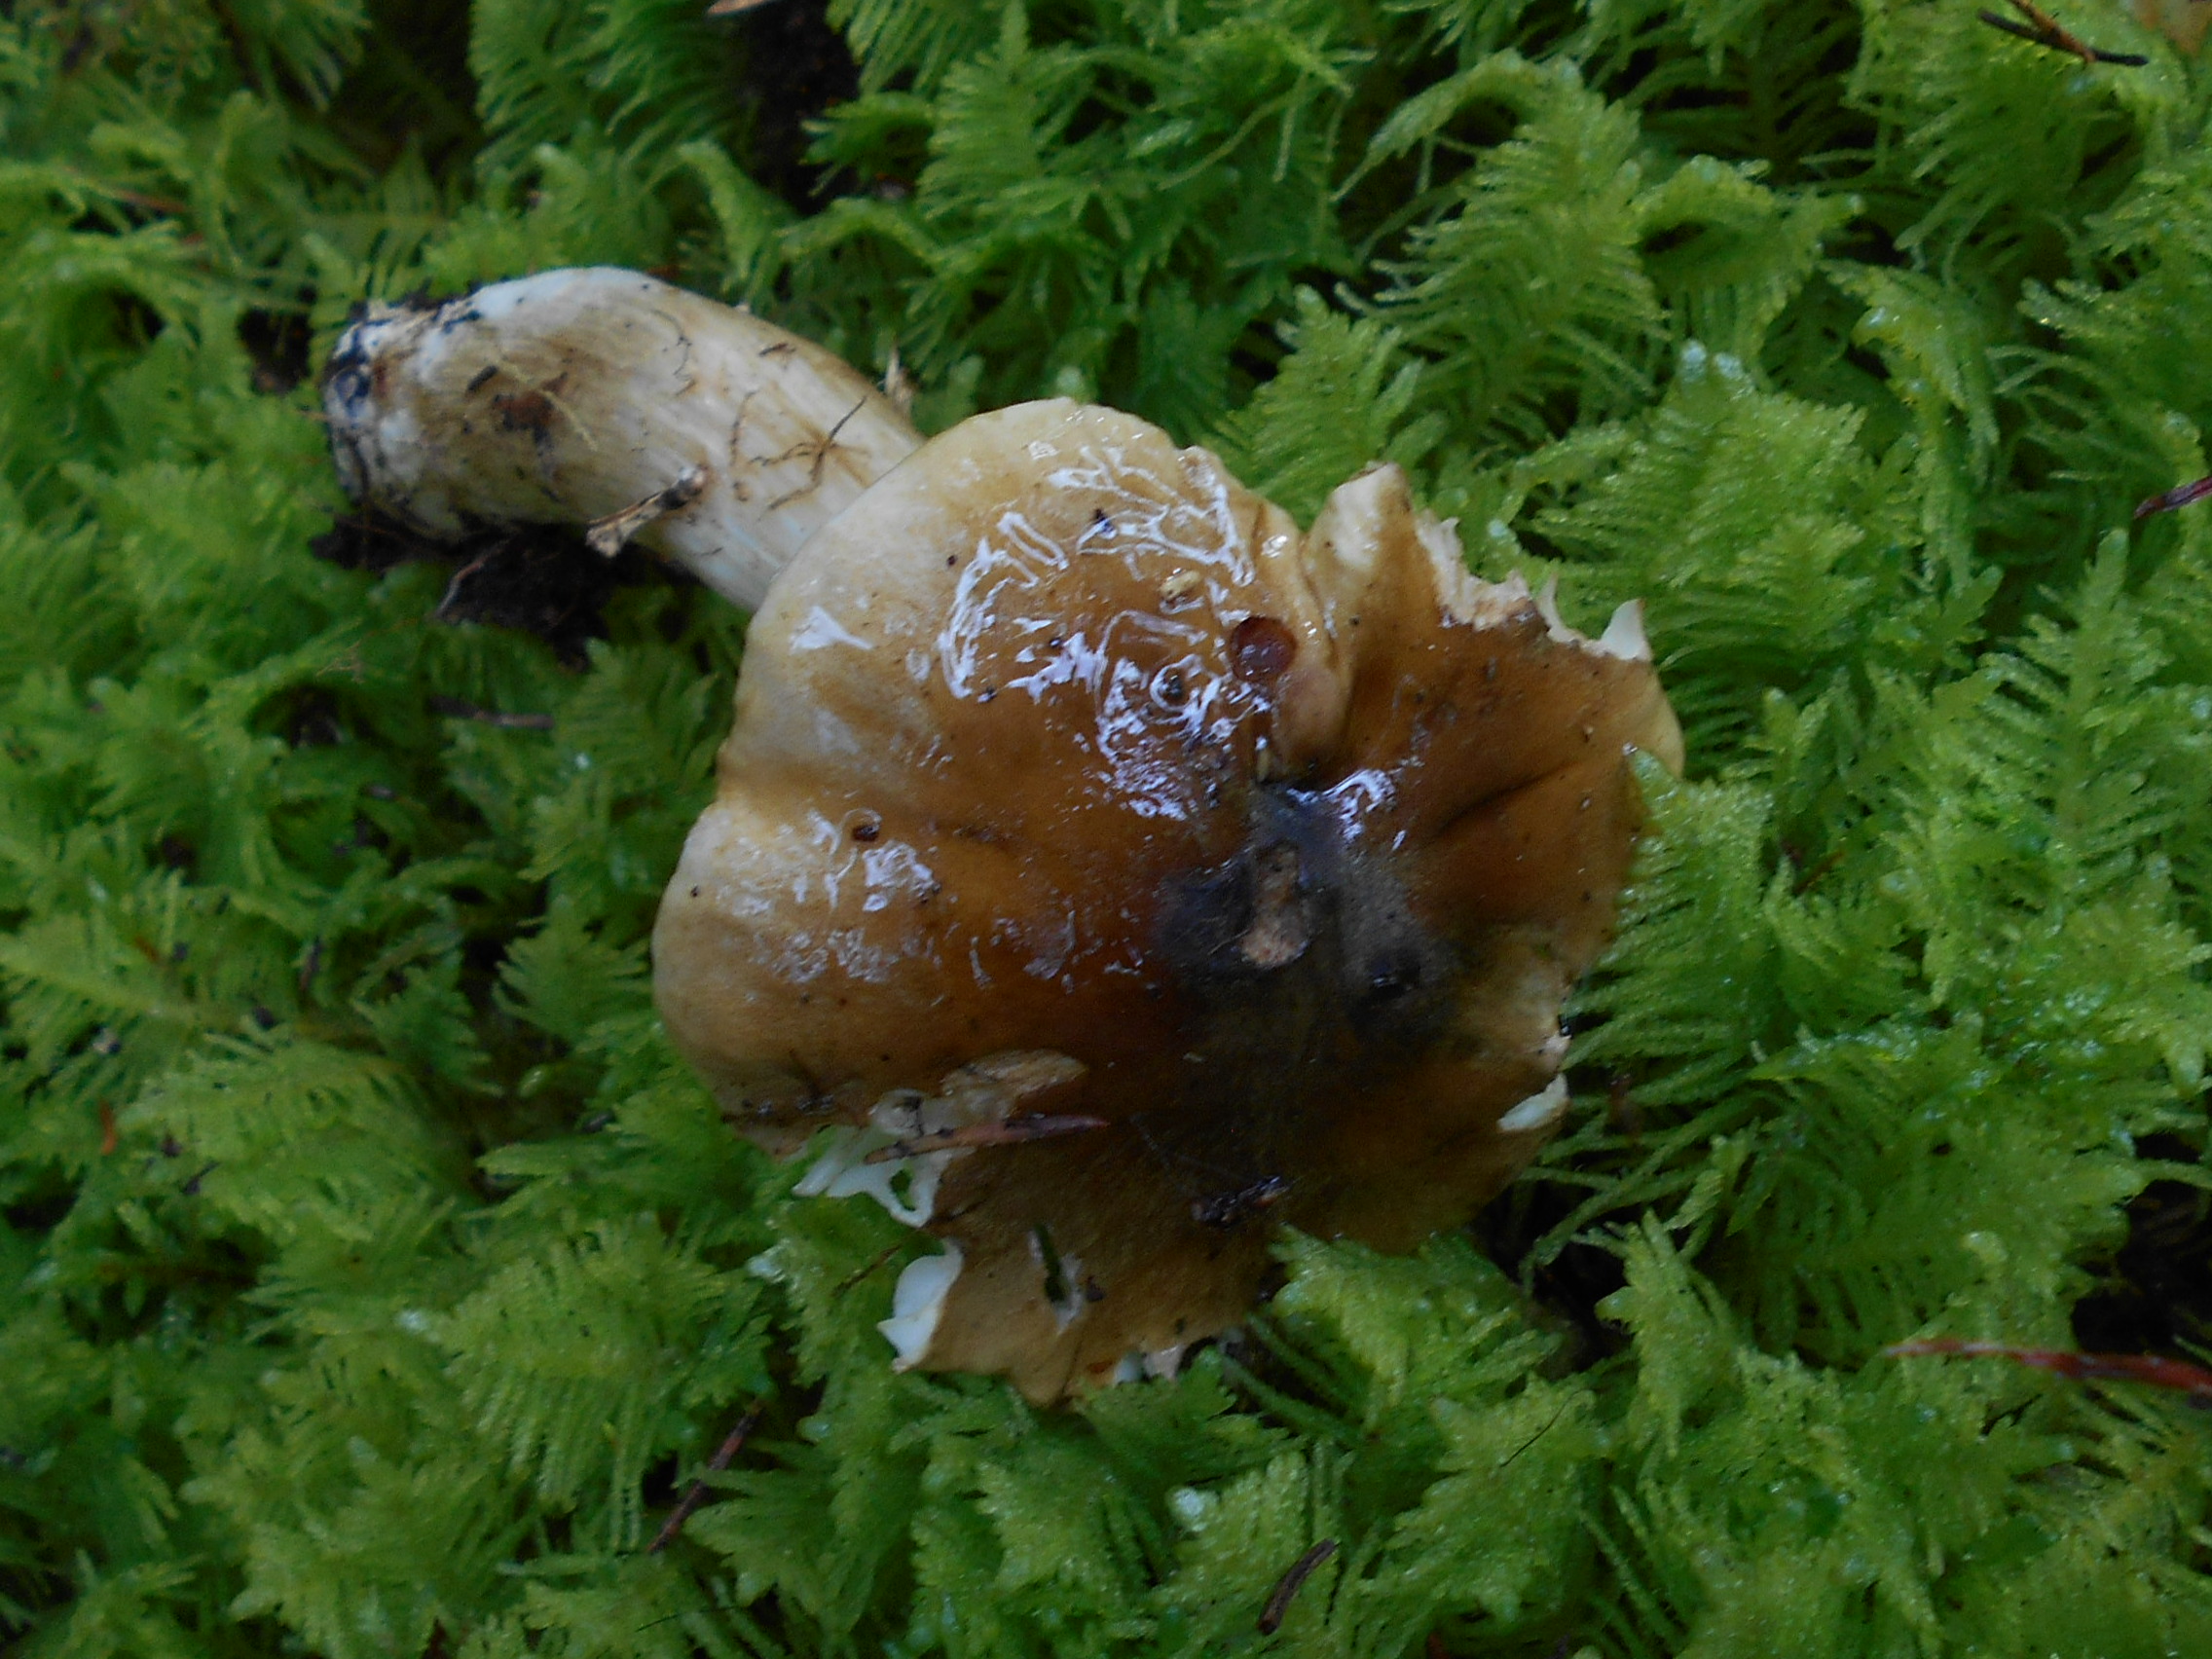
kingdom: Fungi
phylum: Basidiomycota
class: Agaricomycetes
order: Agaricales
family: Tricholomataceae
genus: Tricholoma
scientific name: Tricholoma fucatum
